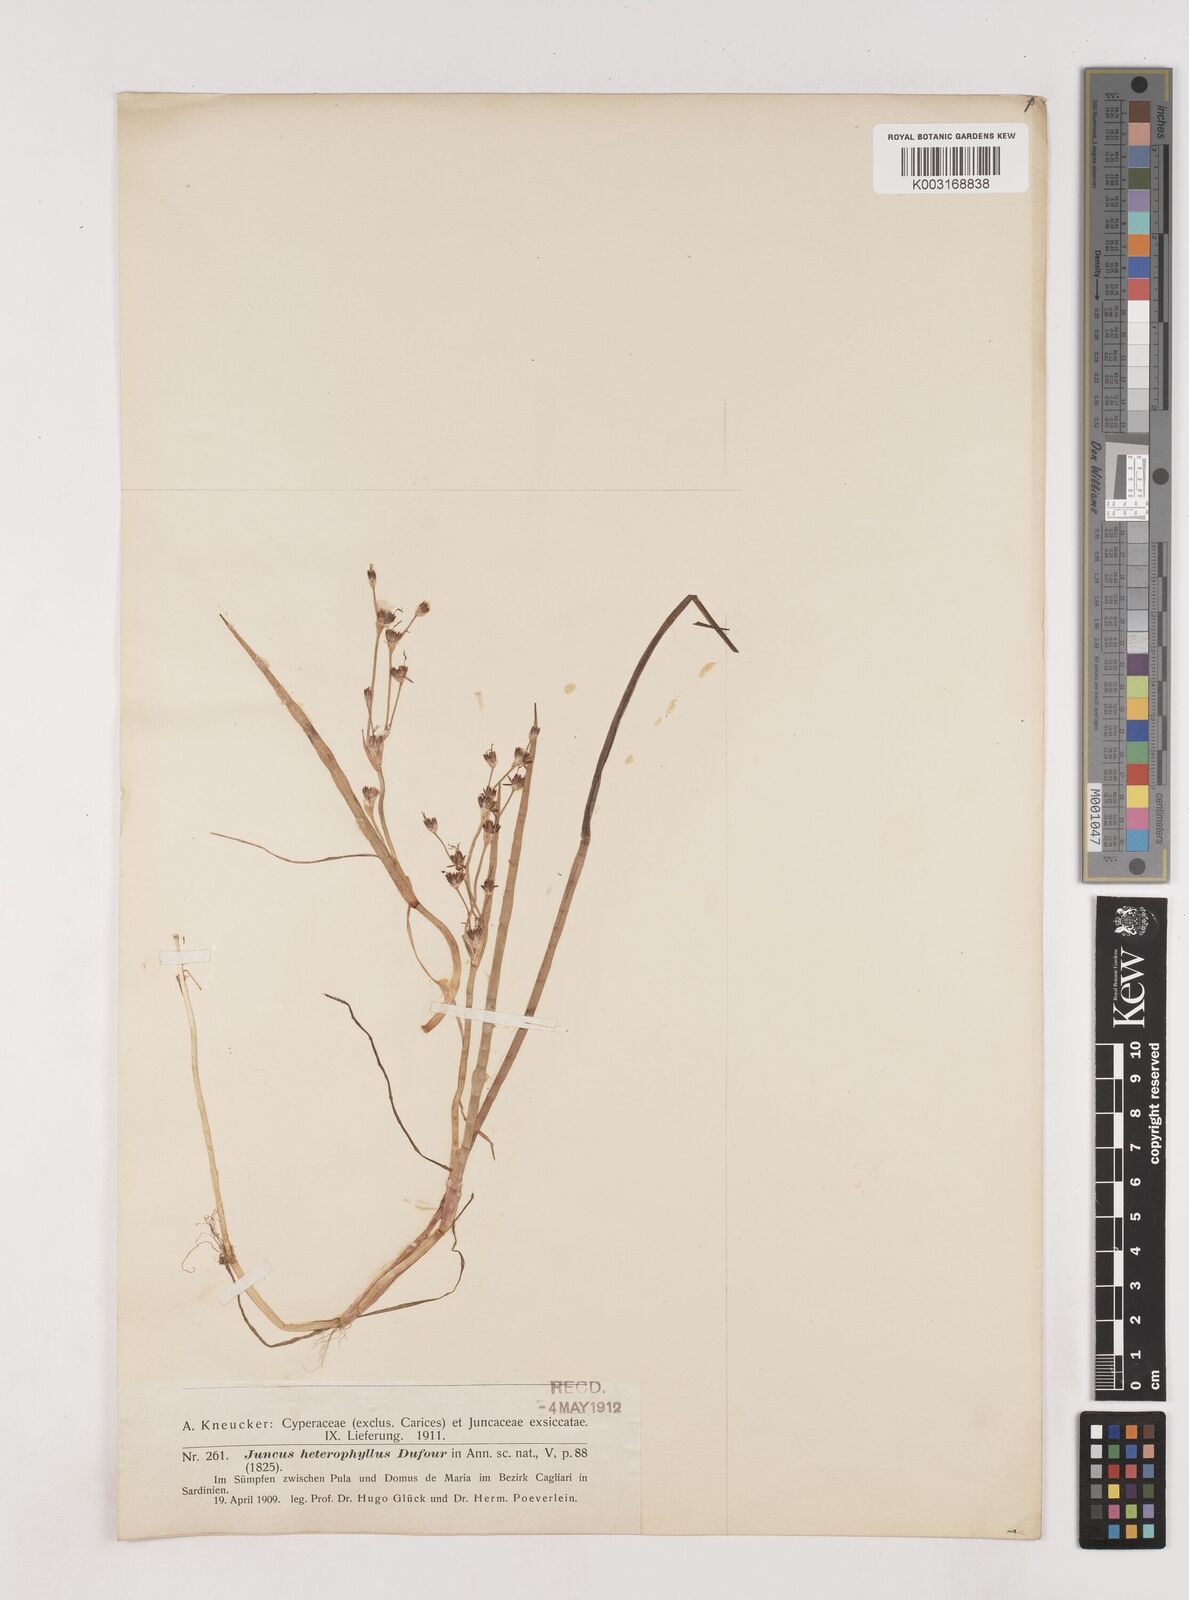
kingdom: Plantae
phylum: Tracheophyta
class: Liliopsida
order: Poales
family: Juncaceae
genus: Juncus
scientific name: Juncus heterophyllus
